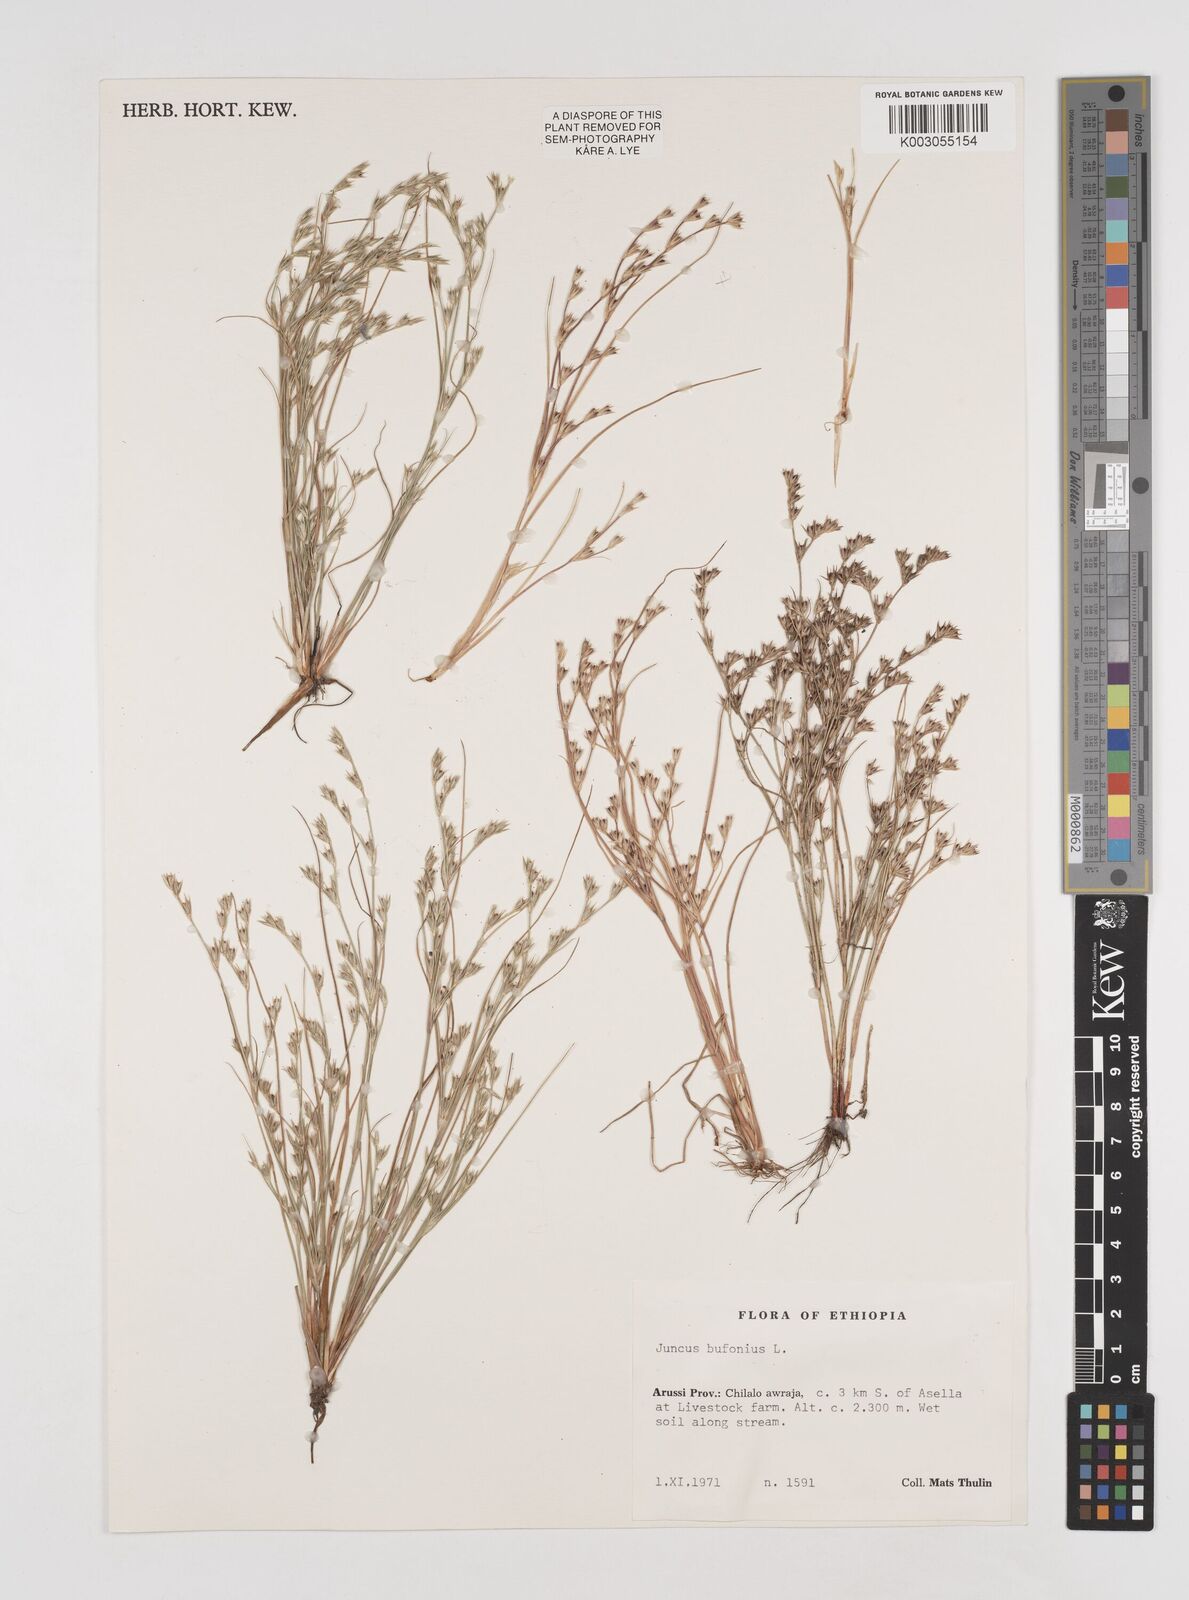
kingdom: Plantae
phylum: Tracheophyta
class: Liliopsida
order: Poales
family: Juncaceae
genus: Juncus
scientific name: Juncus bufonius
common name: Toad rush
